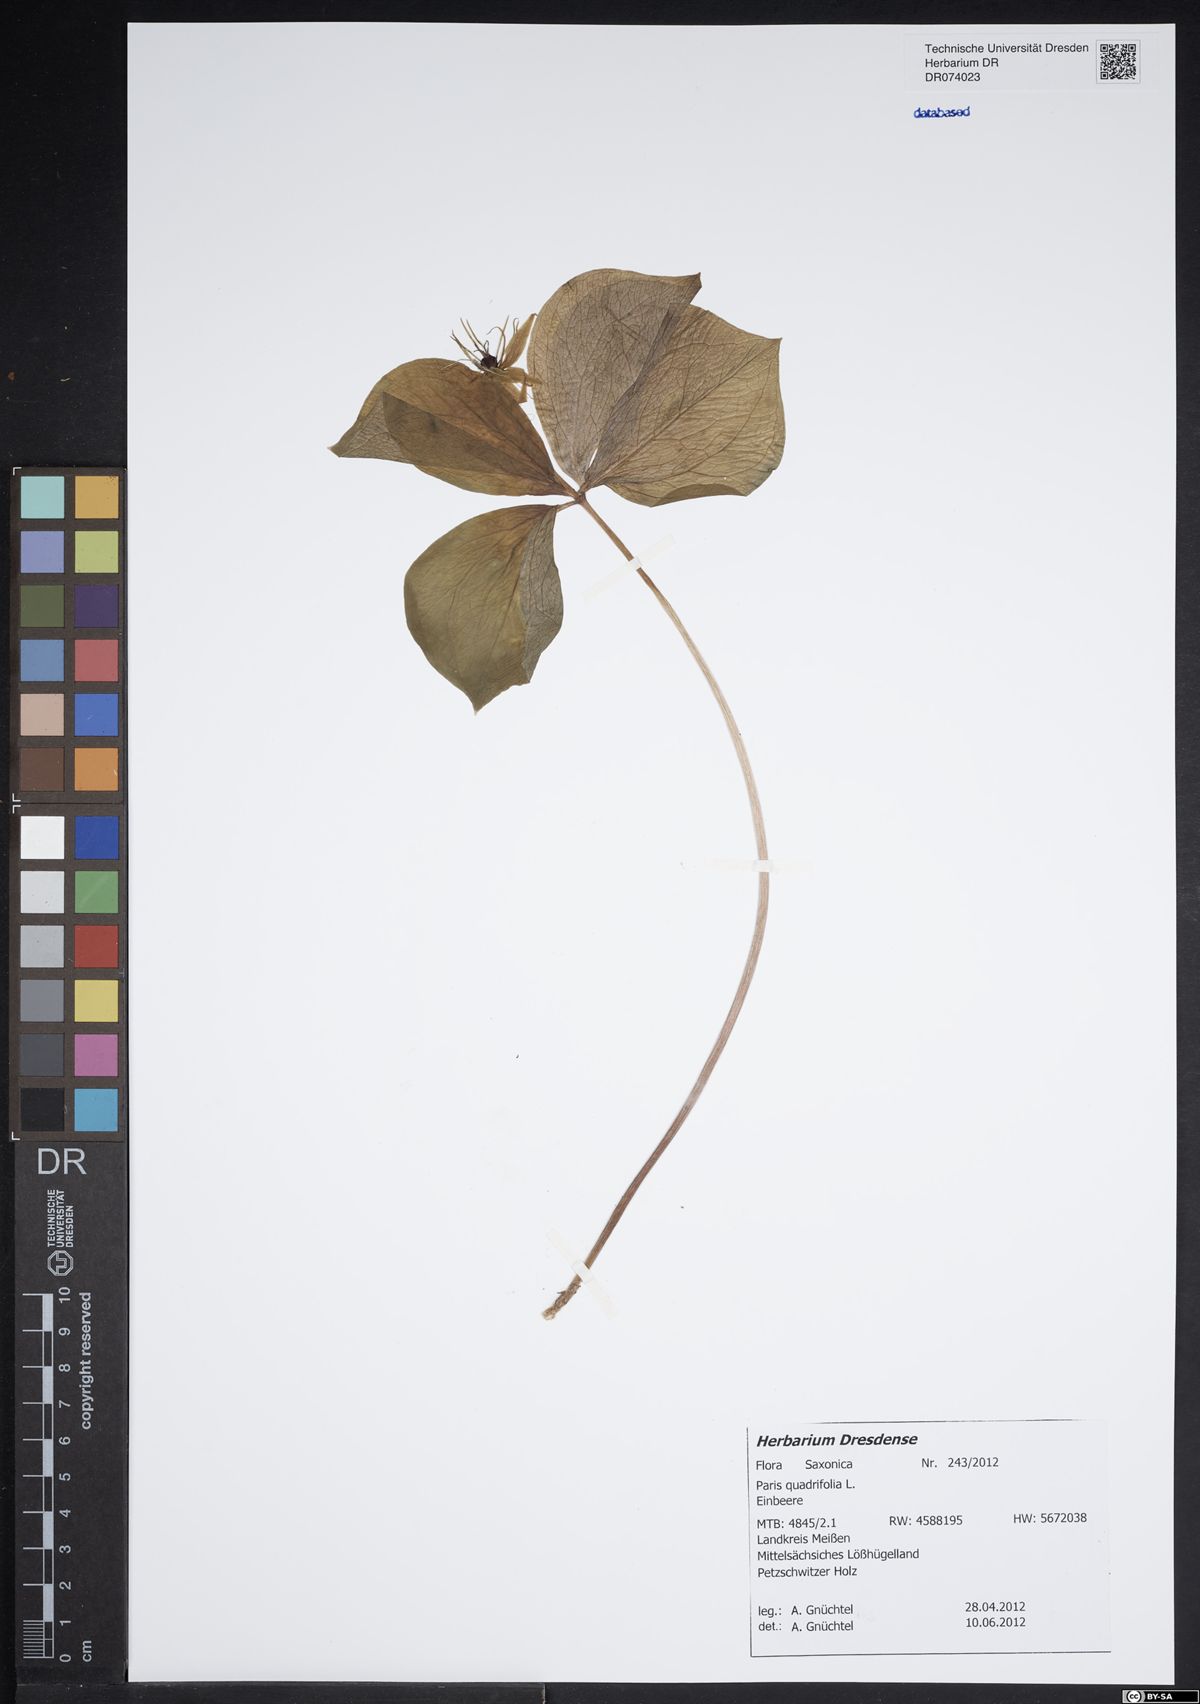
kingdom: Plantae
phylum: Tracheophyta
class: Liliopsida
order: Liliales
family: Melanthiaceae
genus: Paris
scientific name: Paris quadrifolia
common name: Herb-paris
